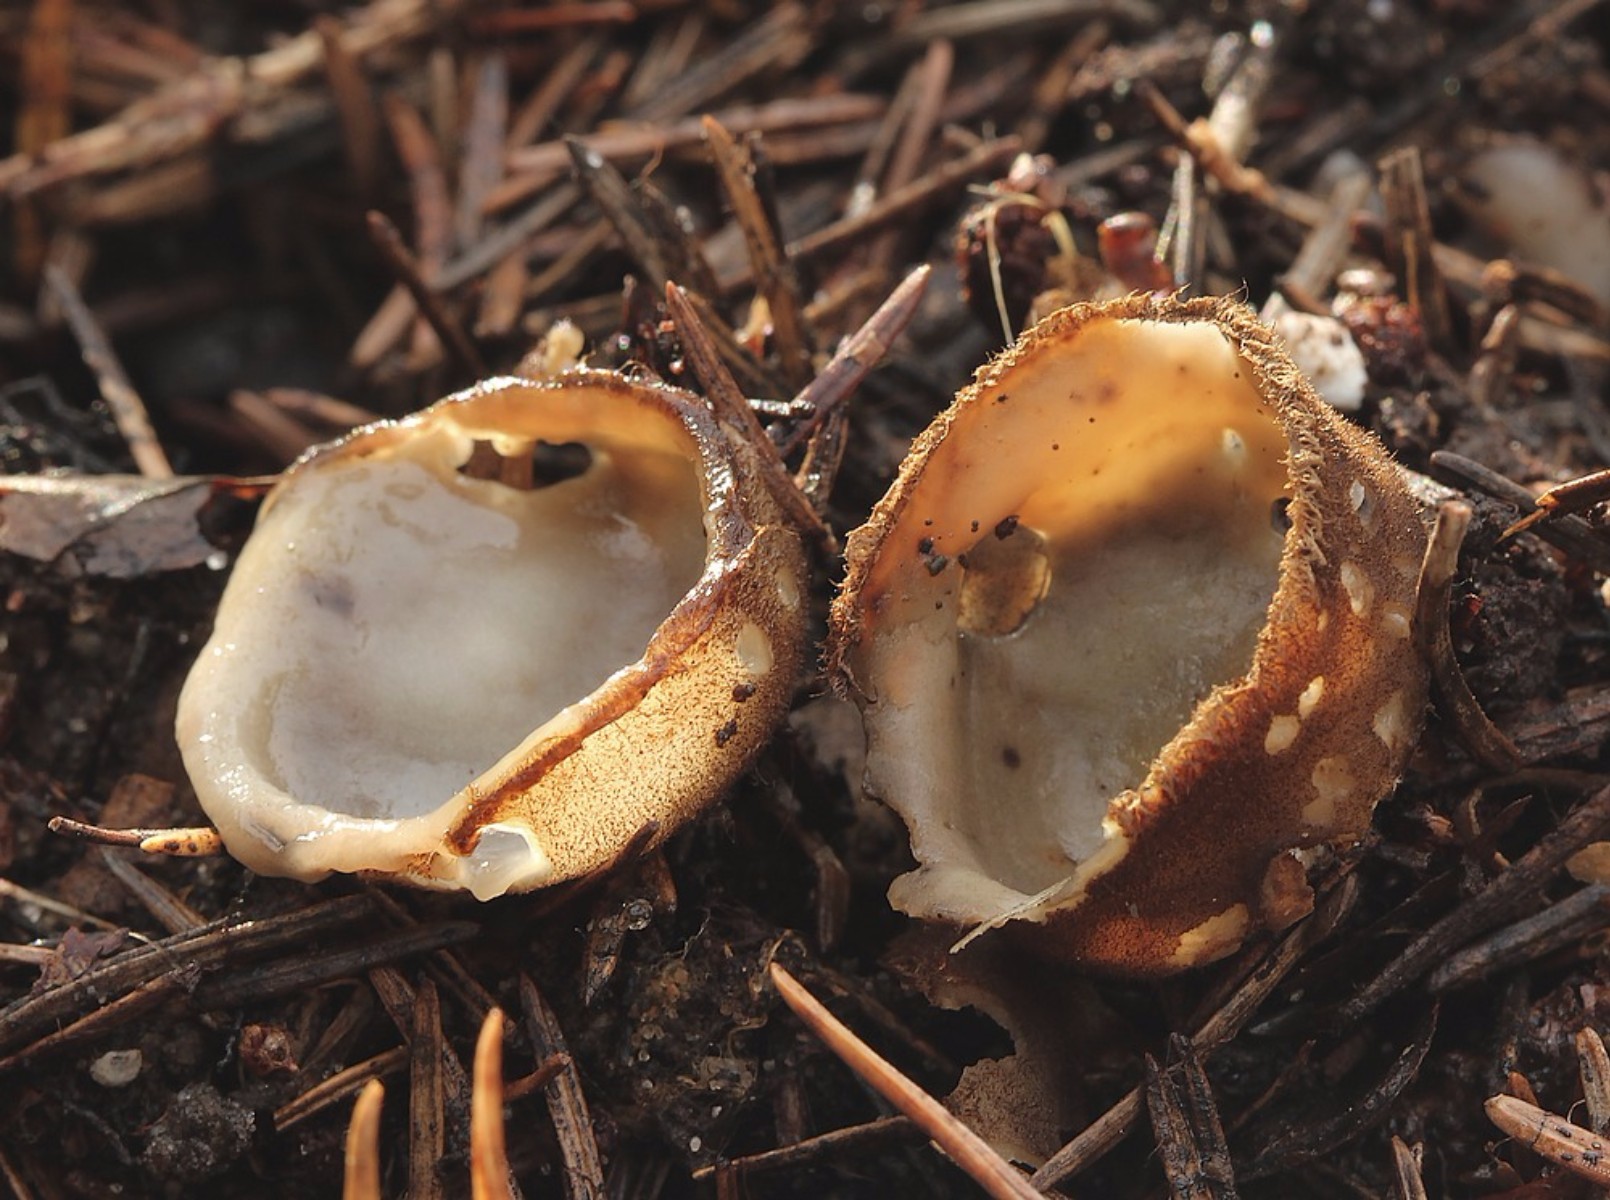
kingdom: Fungi
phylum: Ascomycota
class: Pezizomycetes
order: Pezizales
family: Pyronemataceae
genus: Humaria
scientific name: Humaria hemisphaerica
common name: halvkugleformet børstebæger
